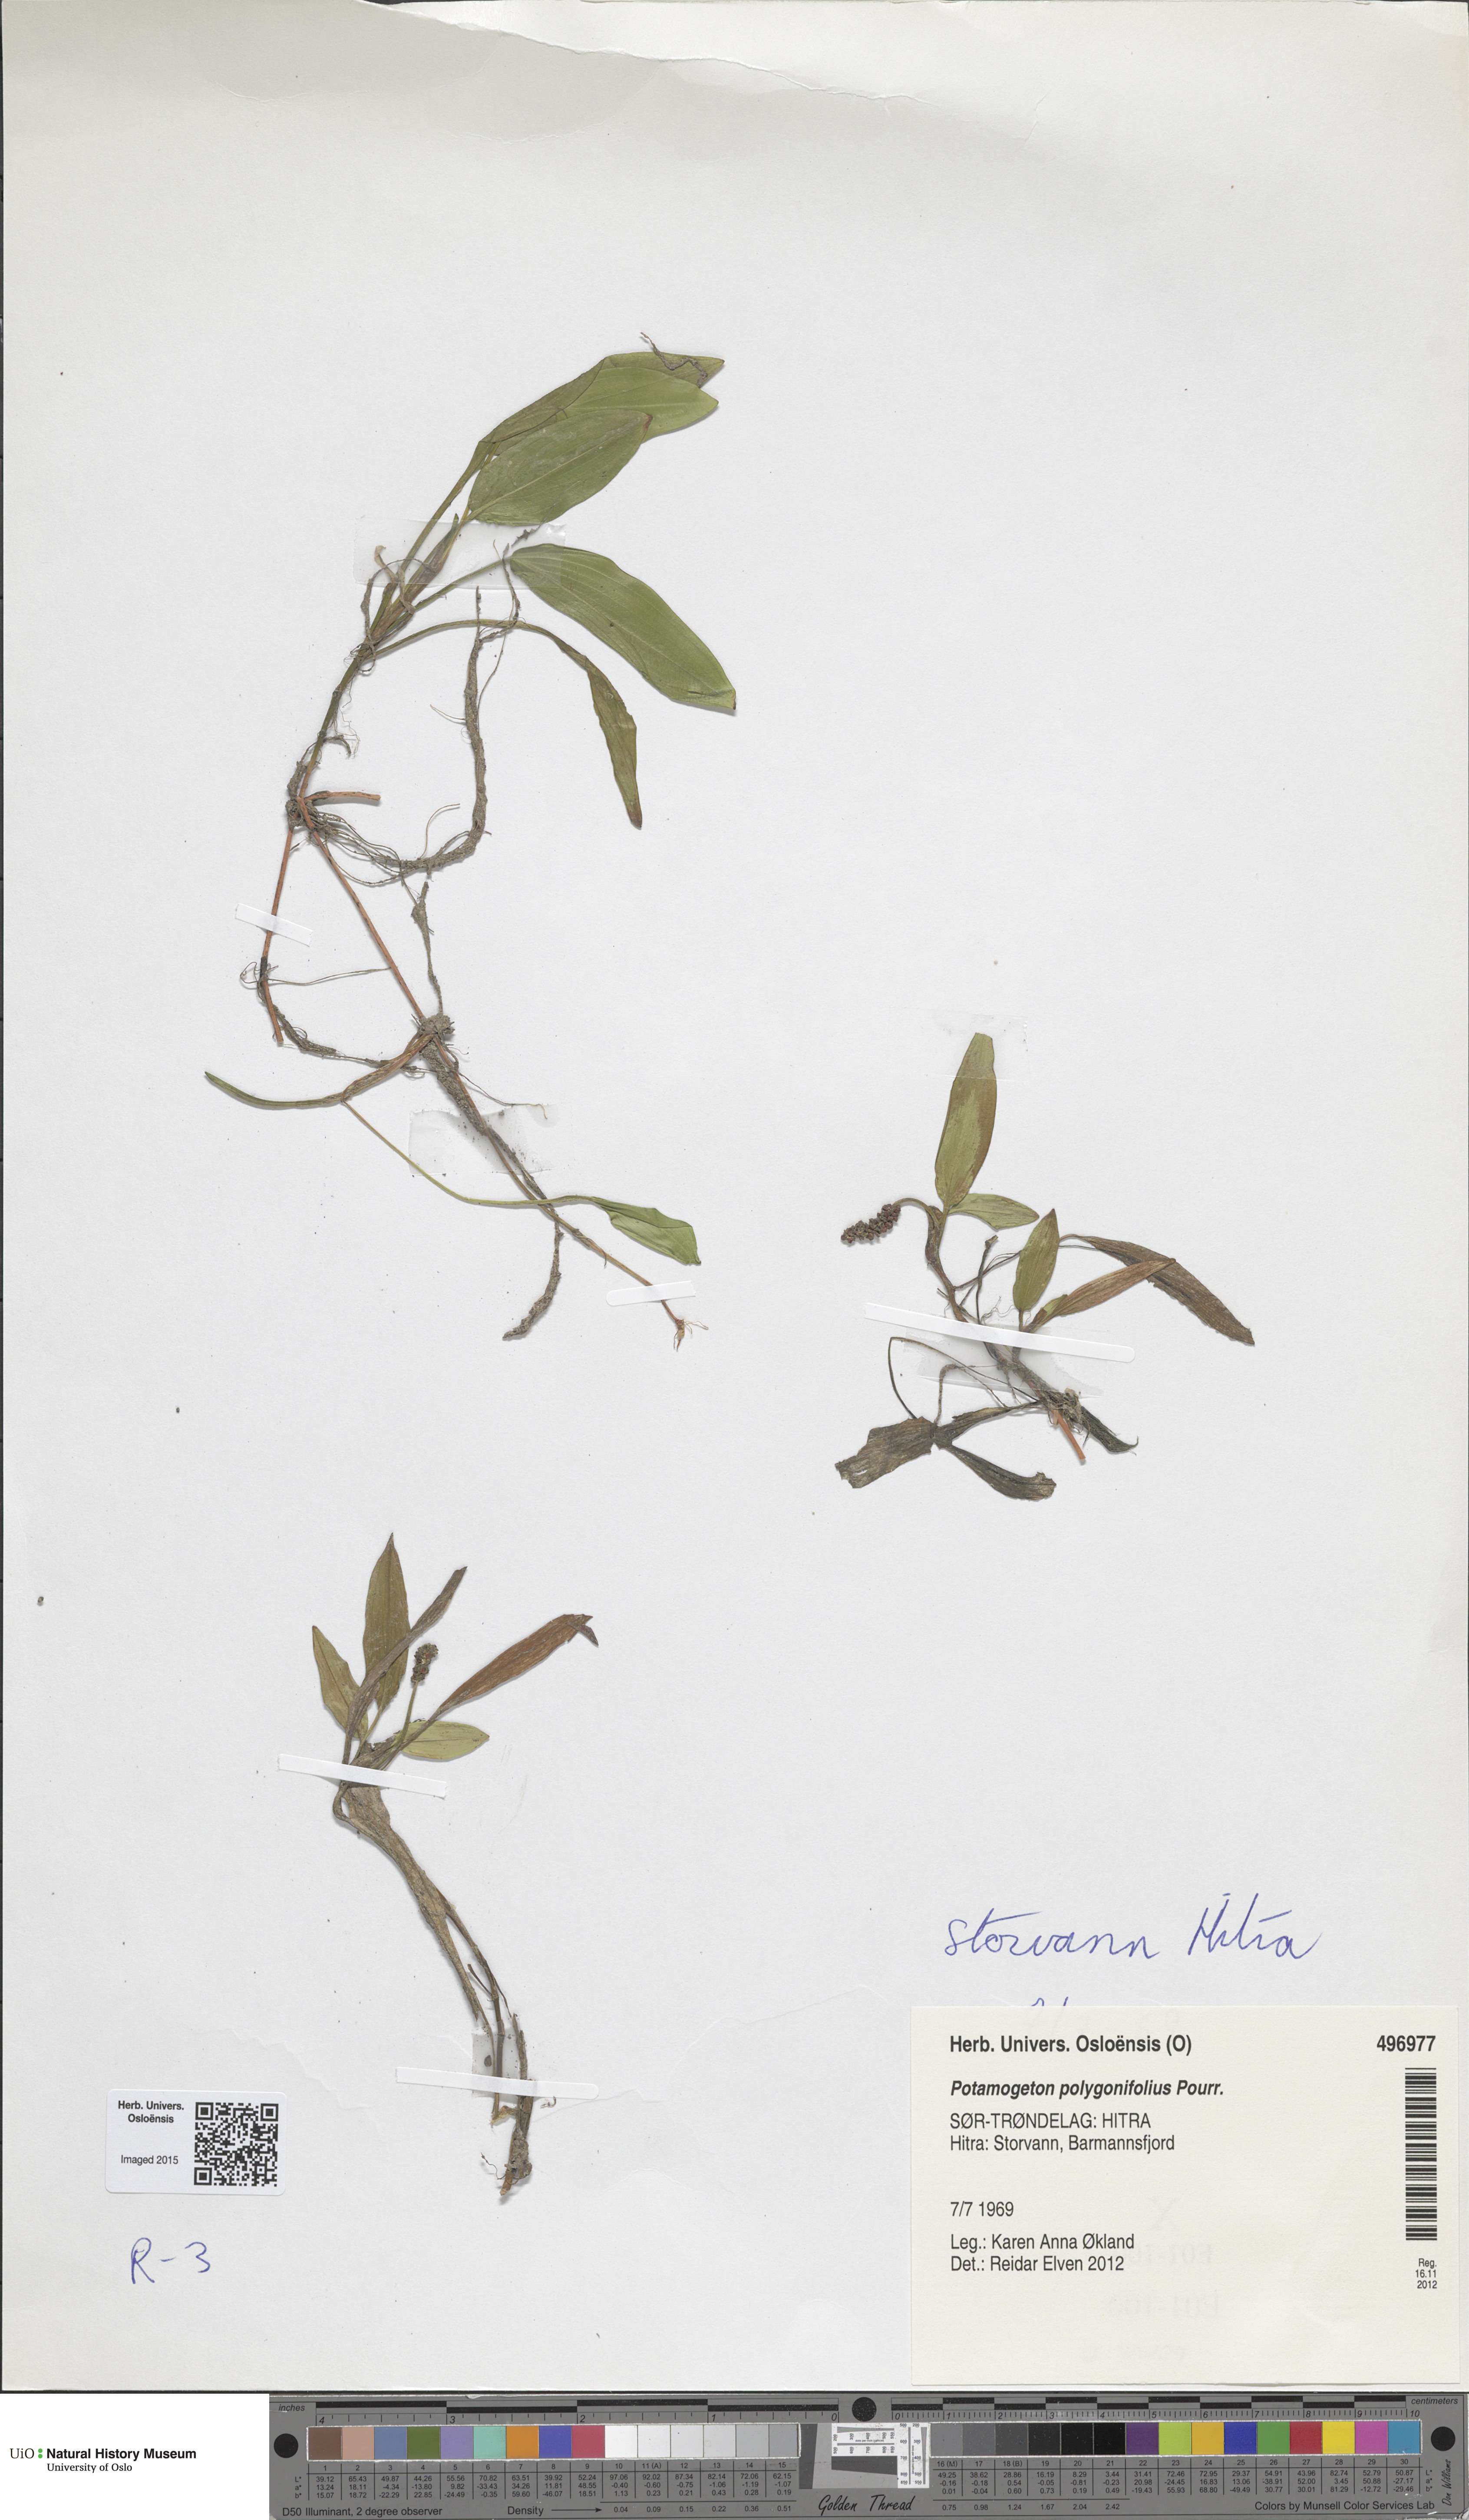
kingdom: Plantae
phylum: Tracheophyta
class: Liliopsida
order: Alismatales
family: Potamogetonaceae
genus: Potamogeton
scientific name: Potamogeton polygonifolius
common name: Bog pondweed
